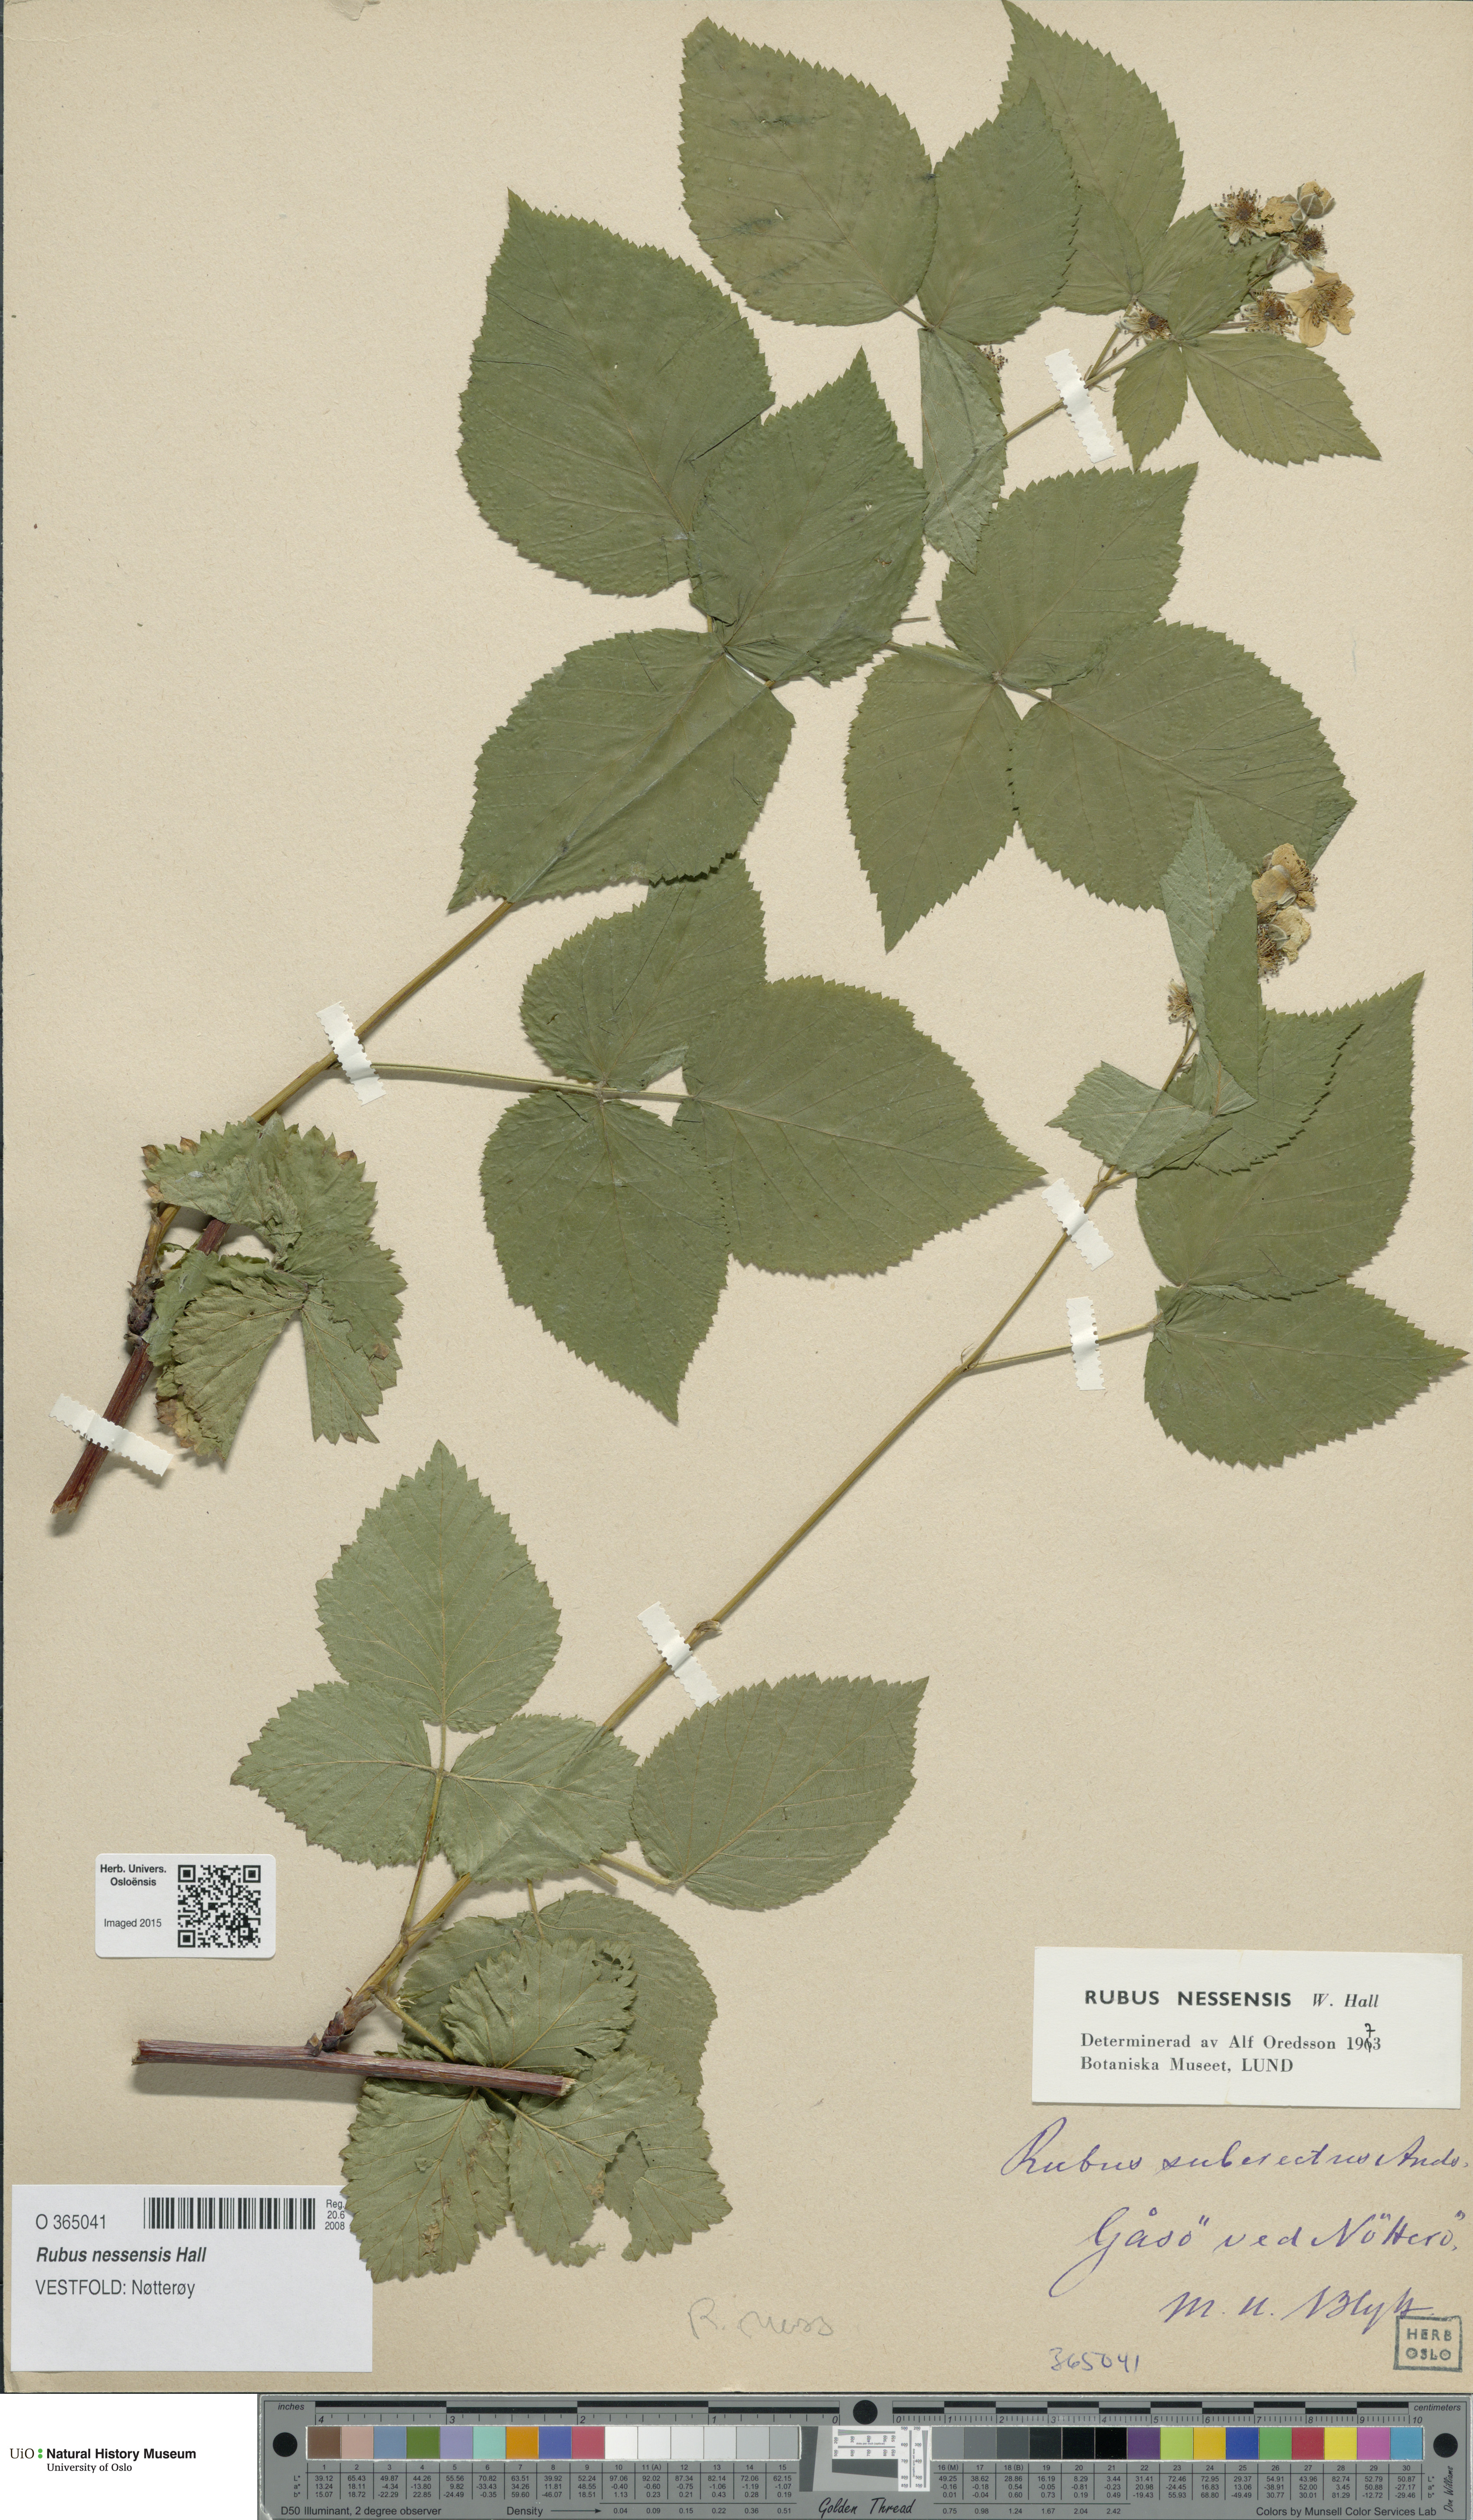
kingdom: Plantae
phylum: Tracheophyta
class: Magnoliopsida
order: Rosales
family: Rosaceae
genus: Rubus
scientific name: Rubus polonicus
